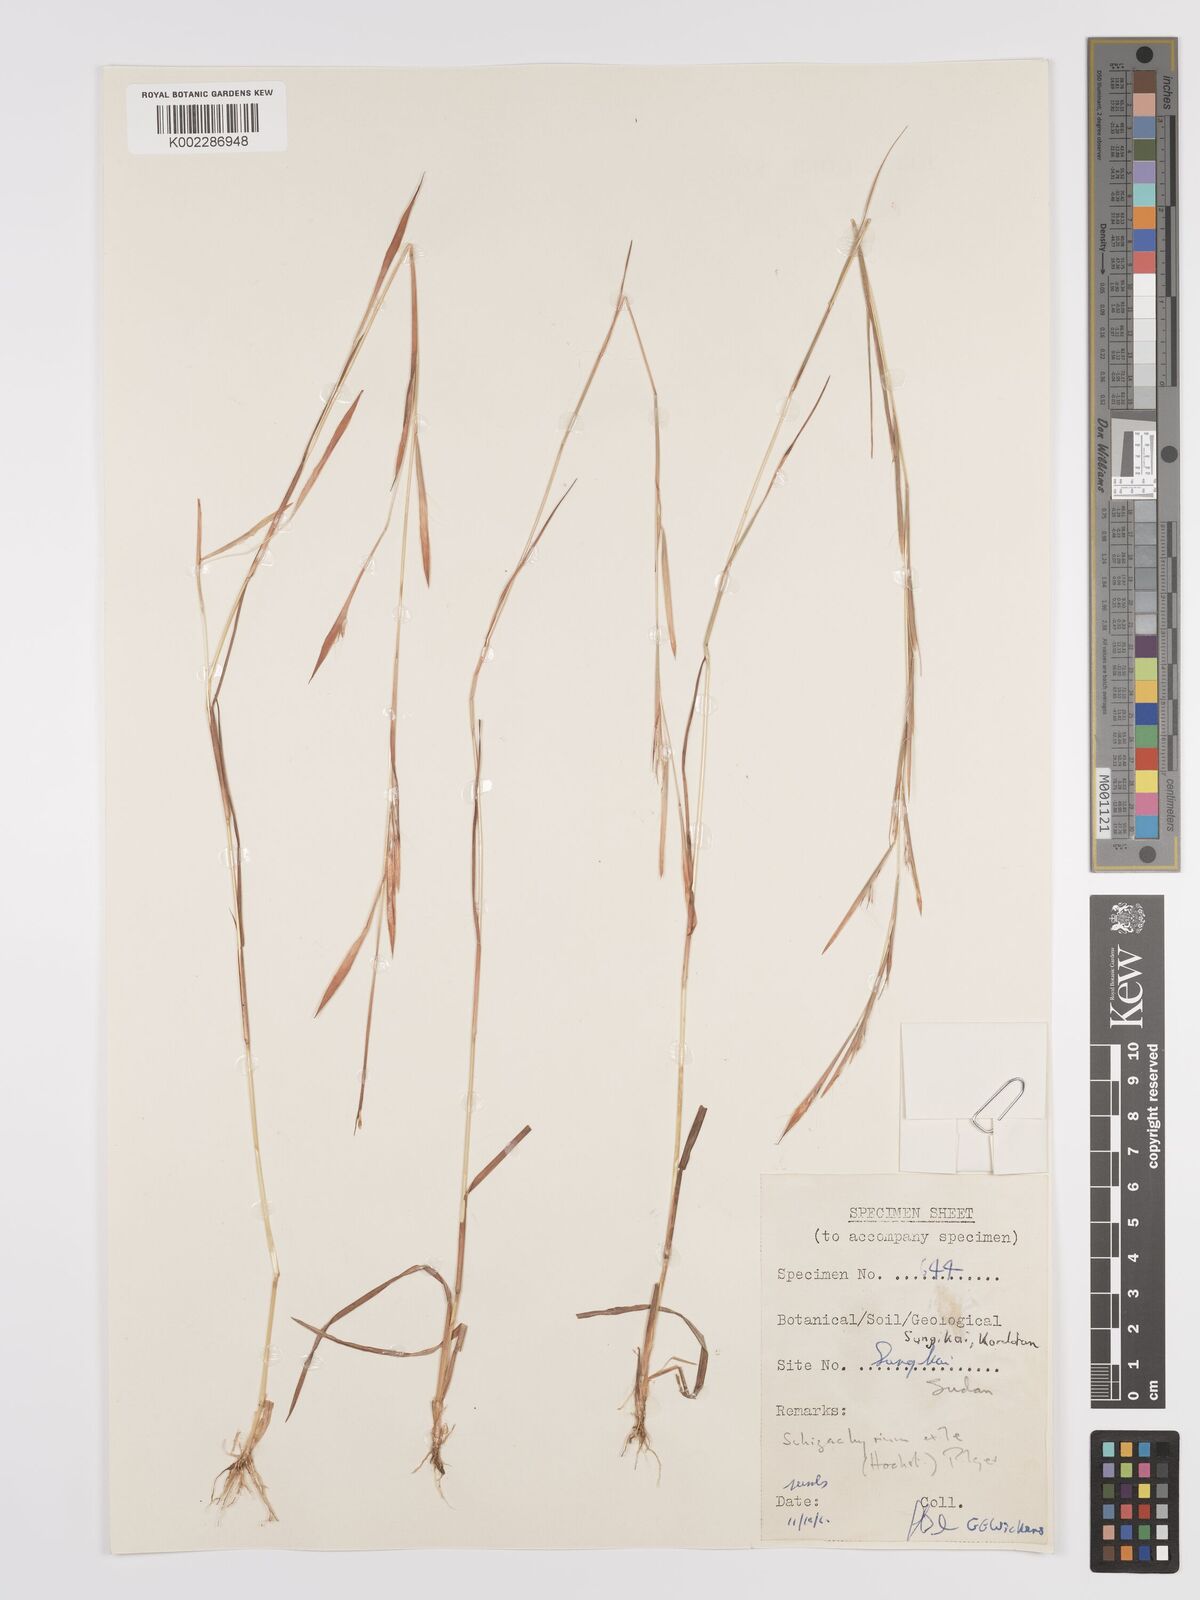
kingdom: Plantae
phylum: Tracheophyta
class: Liliopsida
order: Poales
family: Poaceae
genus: Schizachyrium
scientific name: Schizachyrium exile
